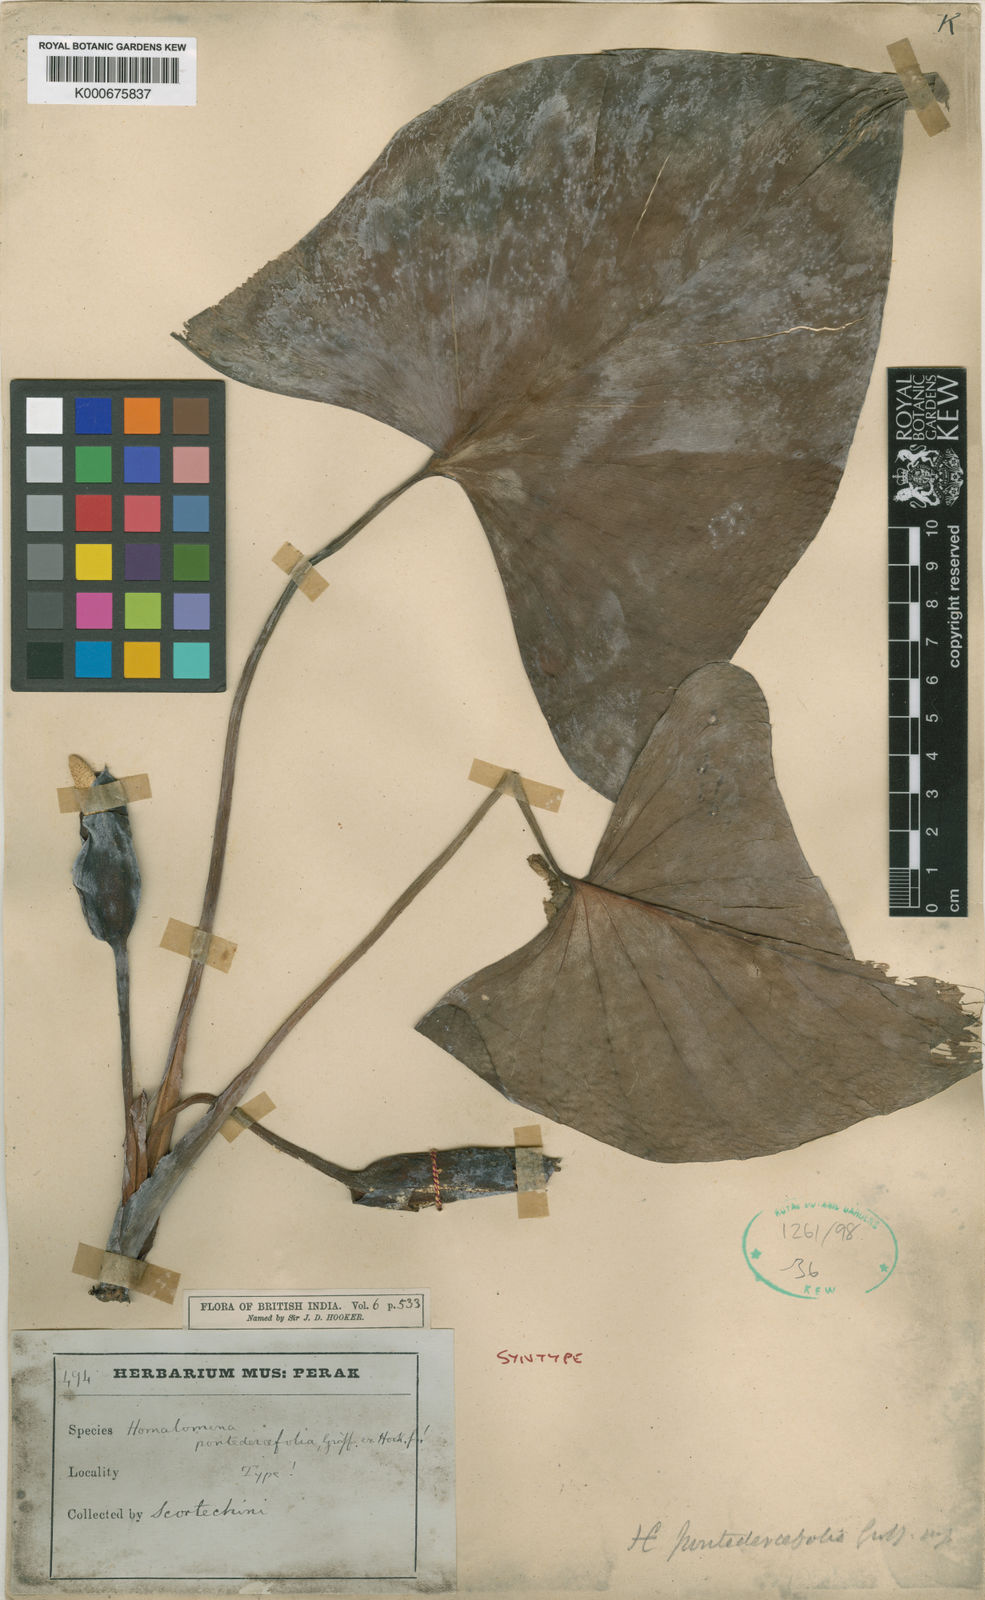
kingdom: Plantae
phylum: Tracheophyta
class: Liliopsida
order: Alismatales
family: Araceae
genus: Homalomena
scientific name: Homalomena pontederifolia
